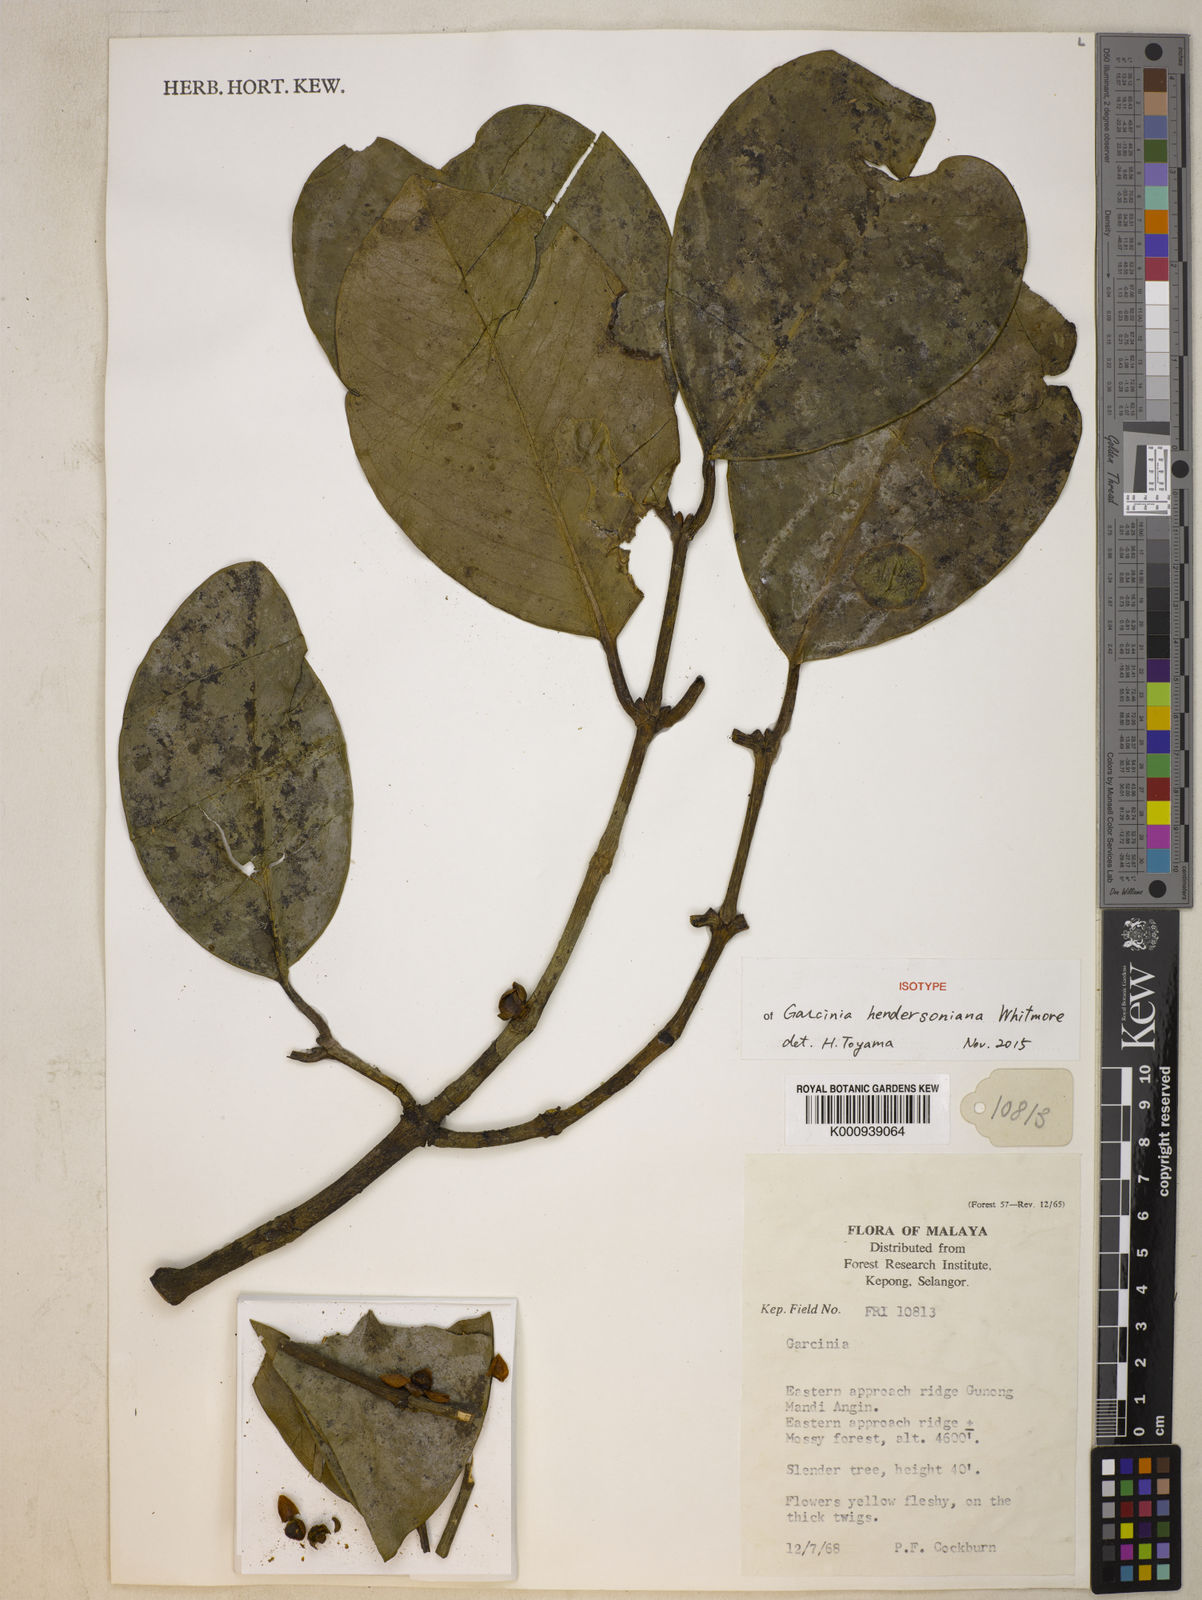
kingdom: Plantae
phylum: Tracheophyta
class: Magnoliopsida
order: Malpighiales
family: Clusiaceae
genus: Garcinia
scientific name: Garcinia hendersoniana
